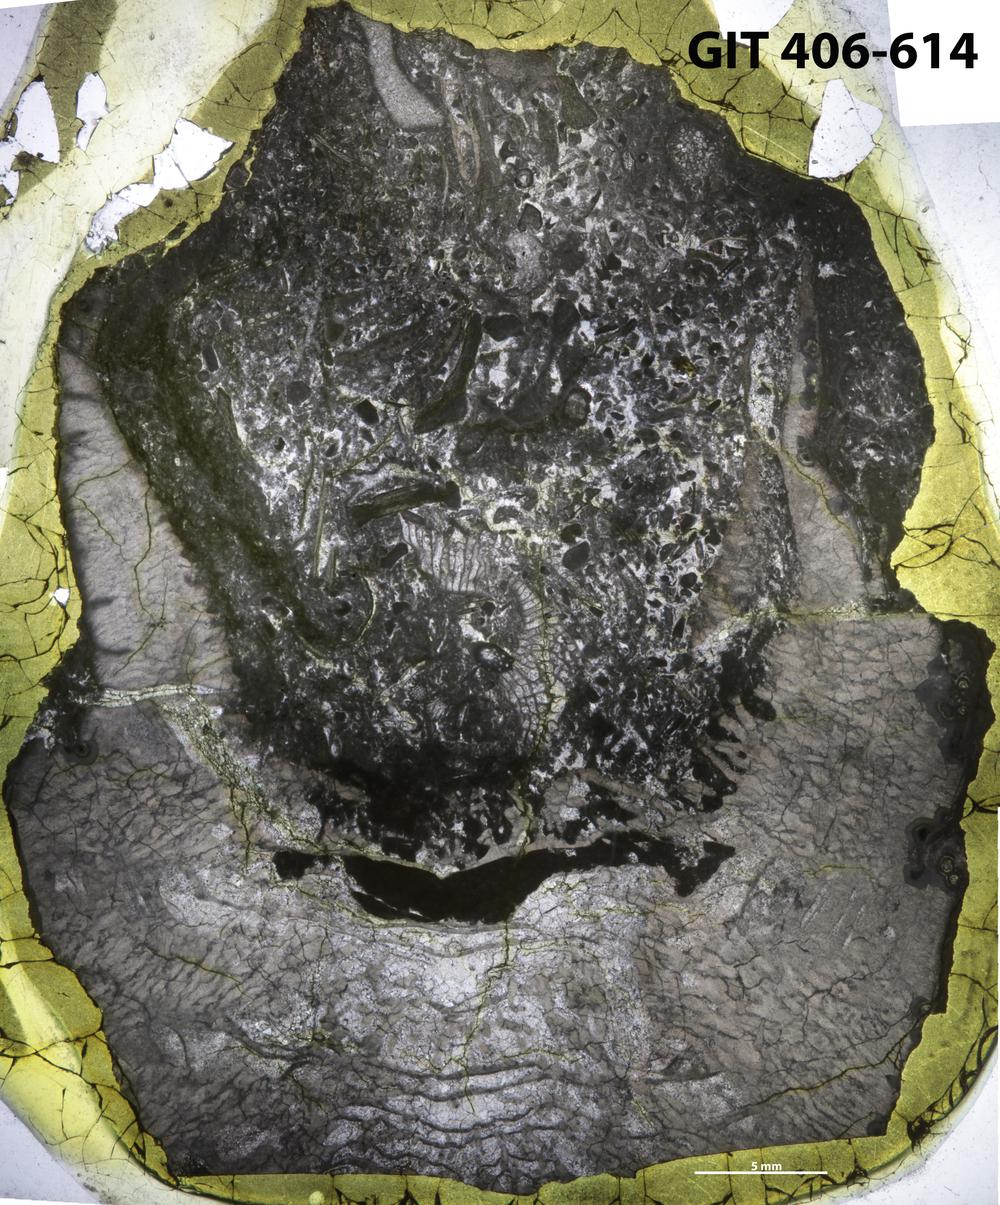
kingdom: Animalia
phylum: Cnidaria
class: Anthozoa
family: Streptelasmatidae
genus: Rectigrewingkia
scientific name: Rectigrewingkia
